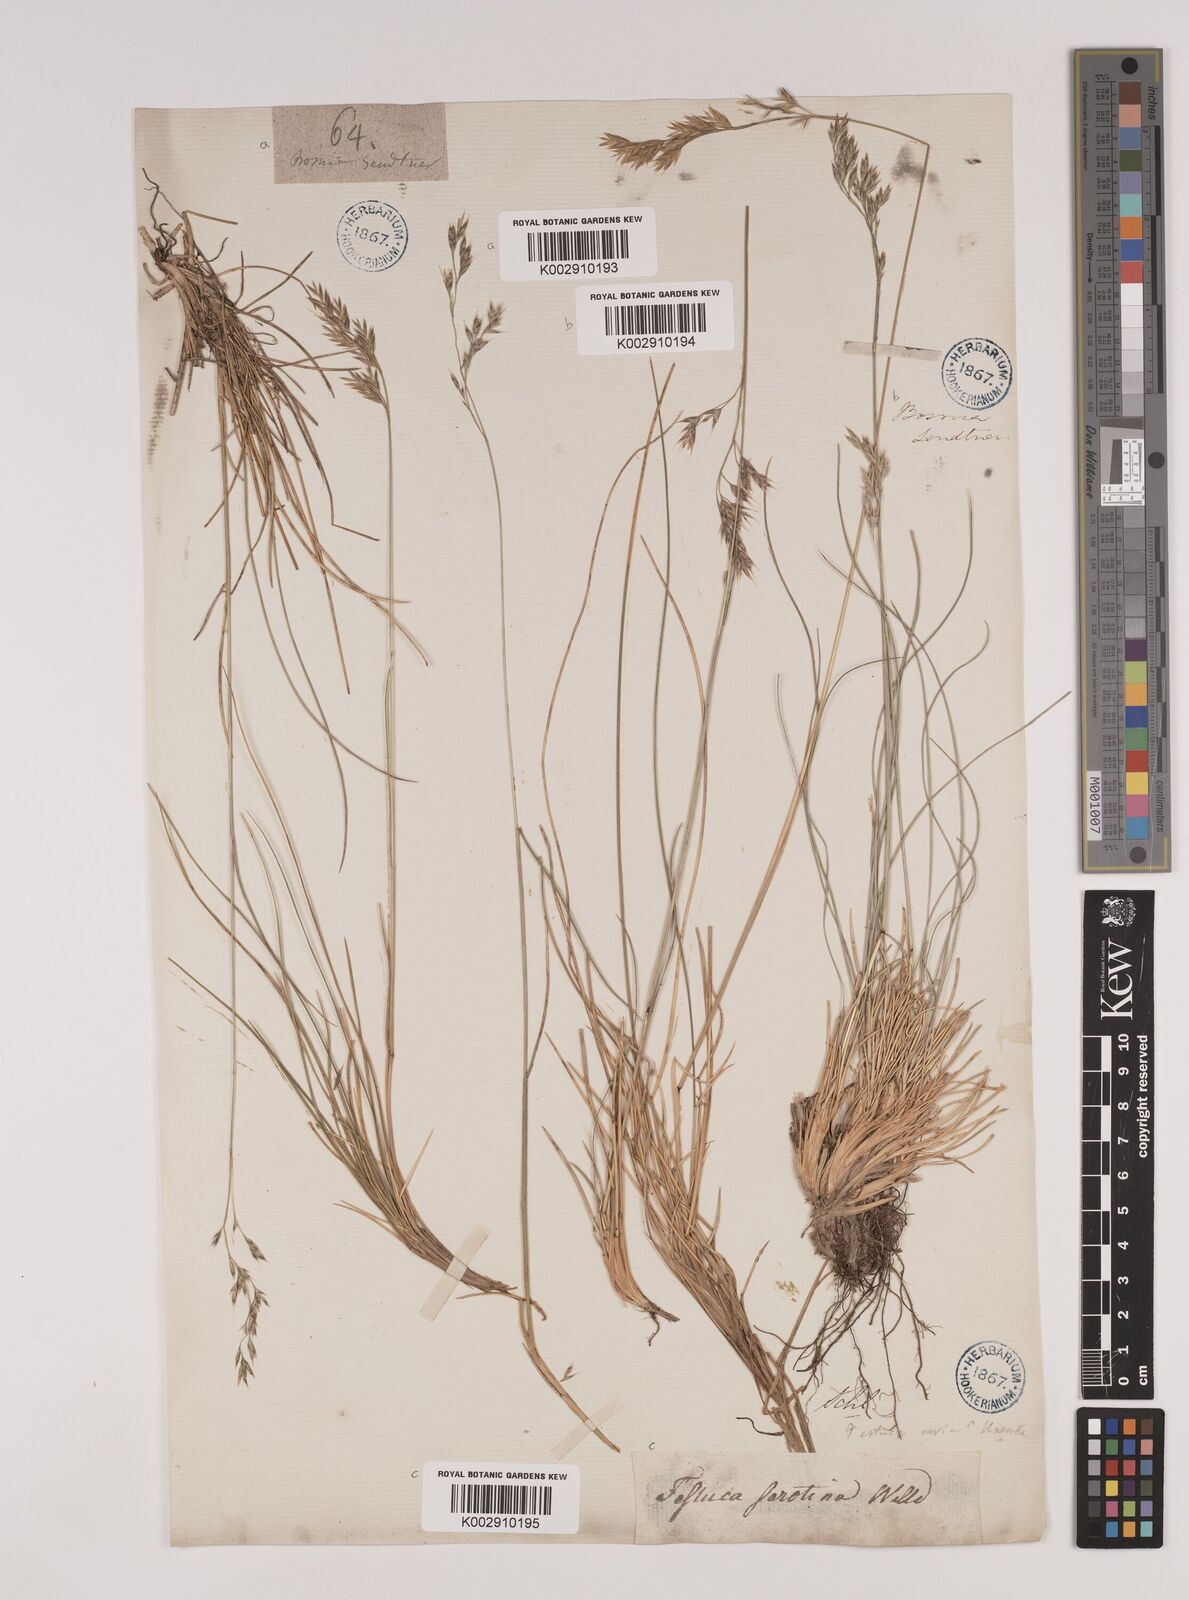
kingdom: Plantae
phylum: Tracheophyta
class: Liliopsida
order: Poales
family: Poaceae
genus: Festuca
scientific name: Festuca varia
